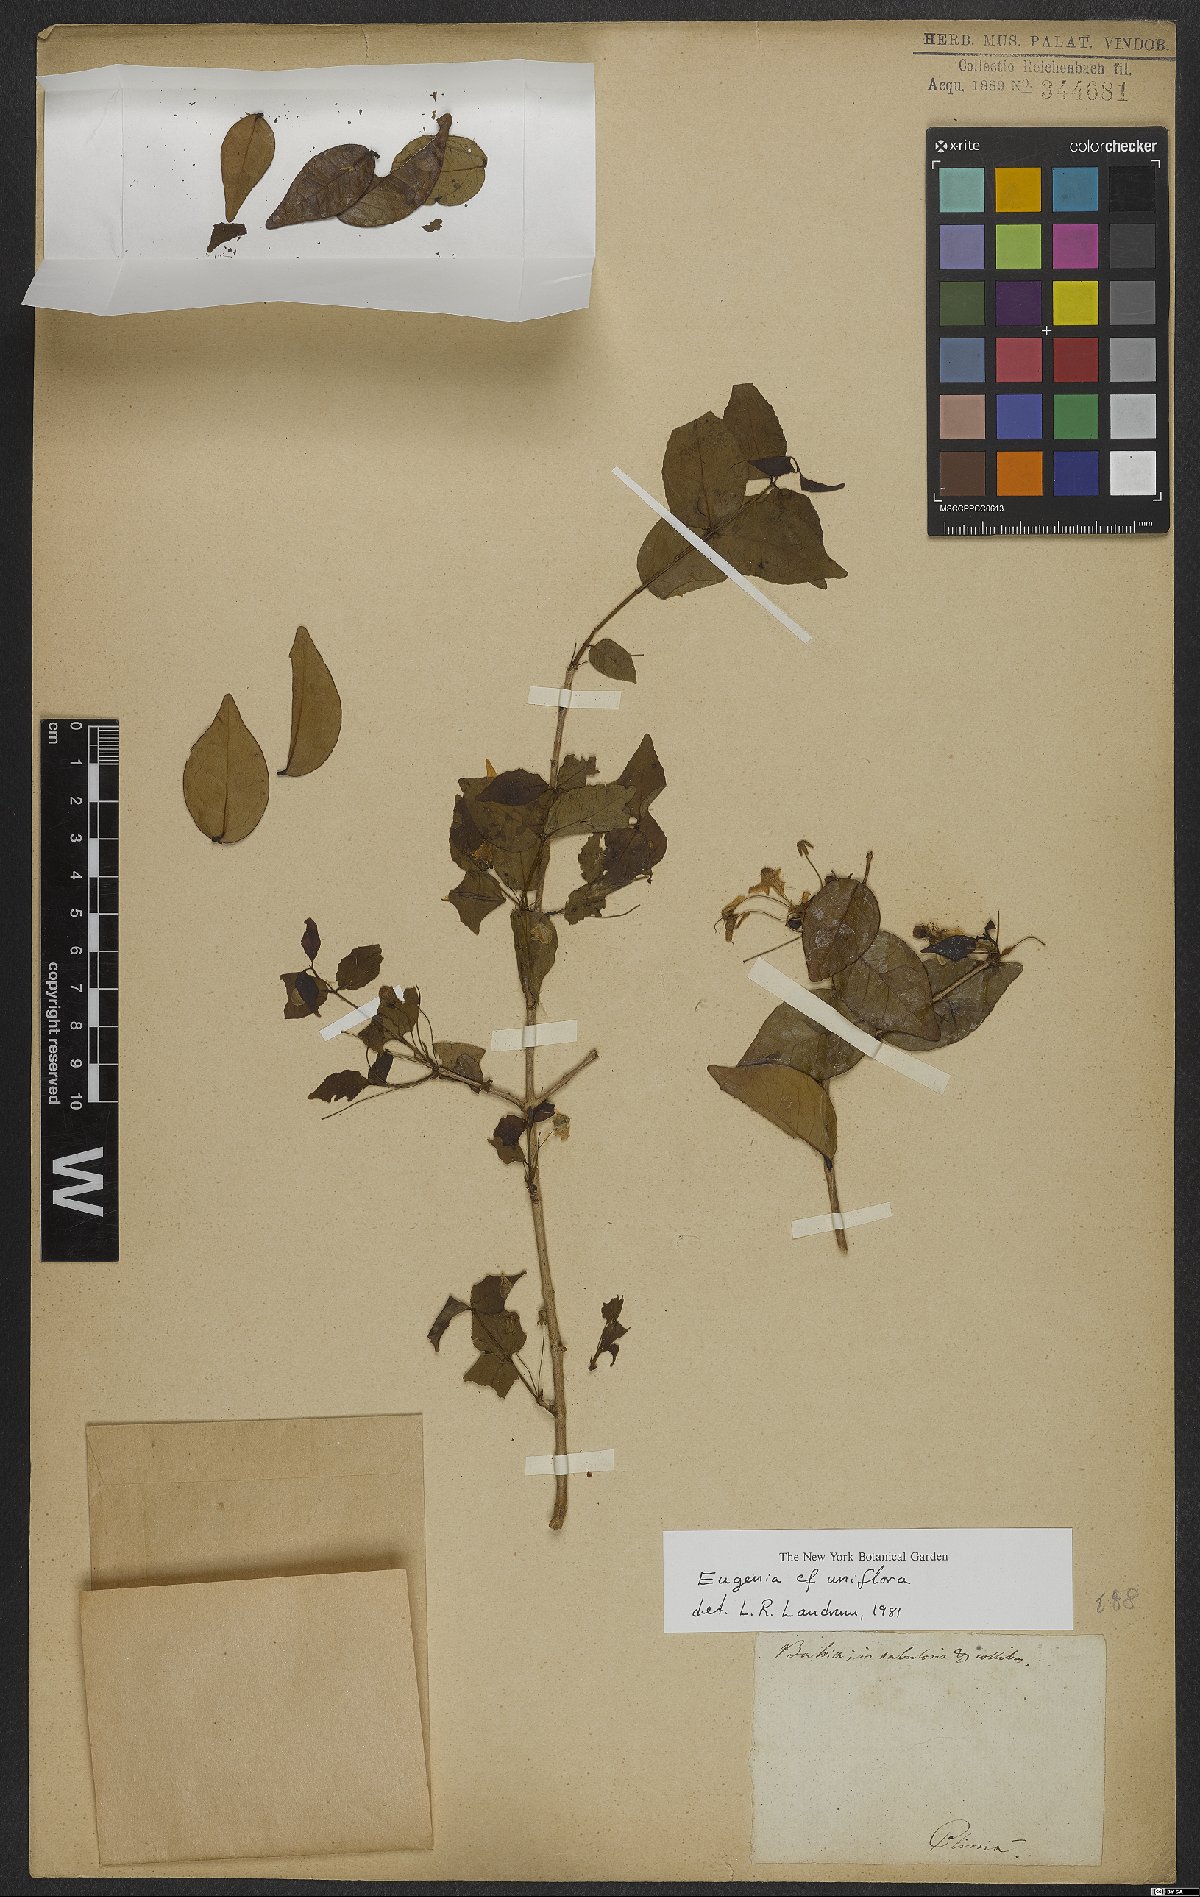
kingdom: Plantae
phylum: Tracheophyta
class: Magnoliopsida
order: Myrtales
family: Myrtaceae
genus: Eugenia
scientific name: Eugenia uniflora
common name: Surinam cherry
